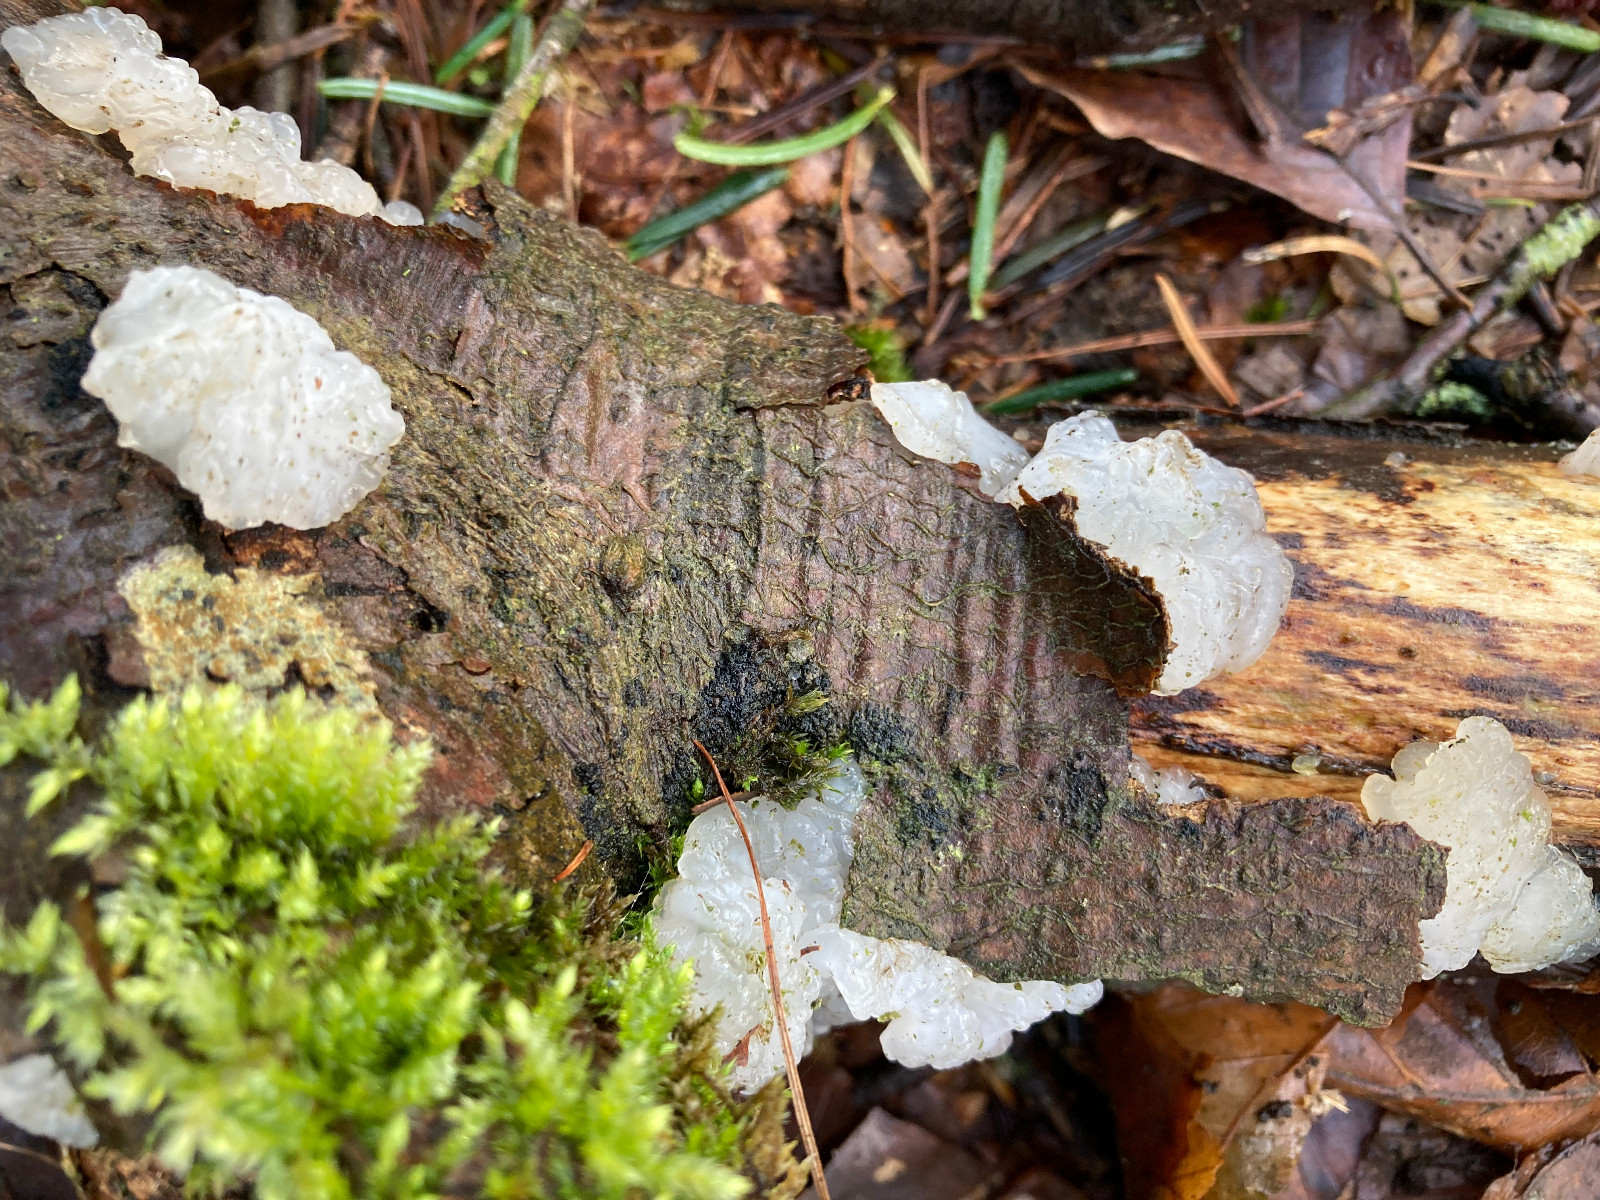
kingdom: Fungi
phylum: Basidiomycota
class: Agaricomycetes
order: Auriculariales
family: Hyaloriaceae
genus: Myxarium
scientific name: Myxarium nucleatum
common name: klar bævretop
